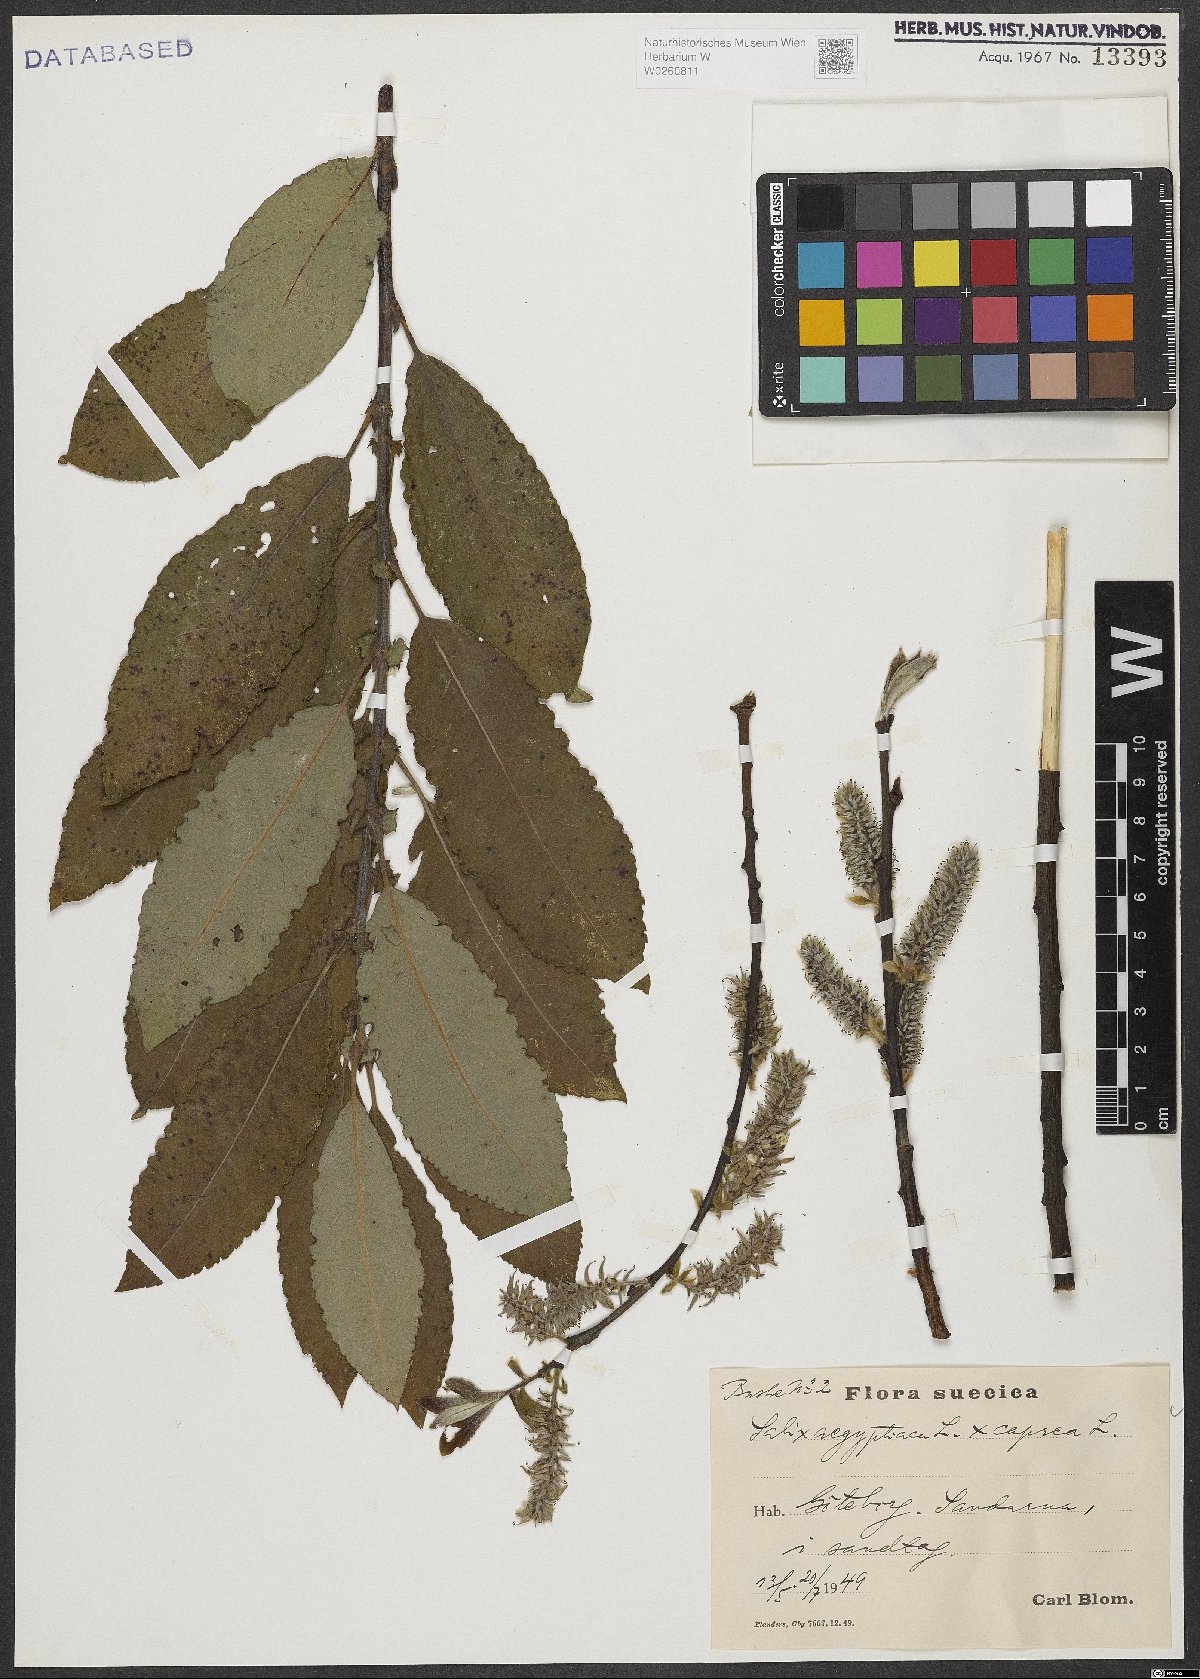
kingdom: Plantae
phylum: Tracheophyta
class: Magnoliopsida
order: Malpighiales
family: Salicaceae
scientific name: Salicaceae
